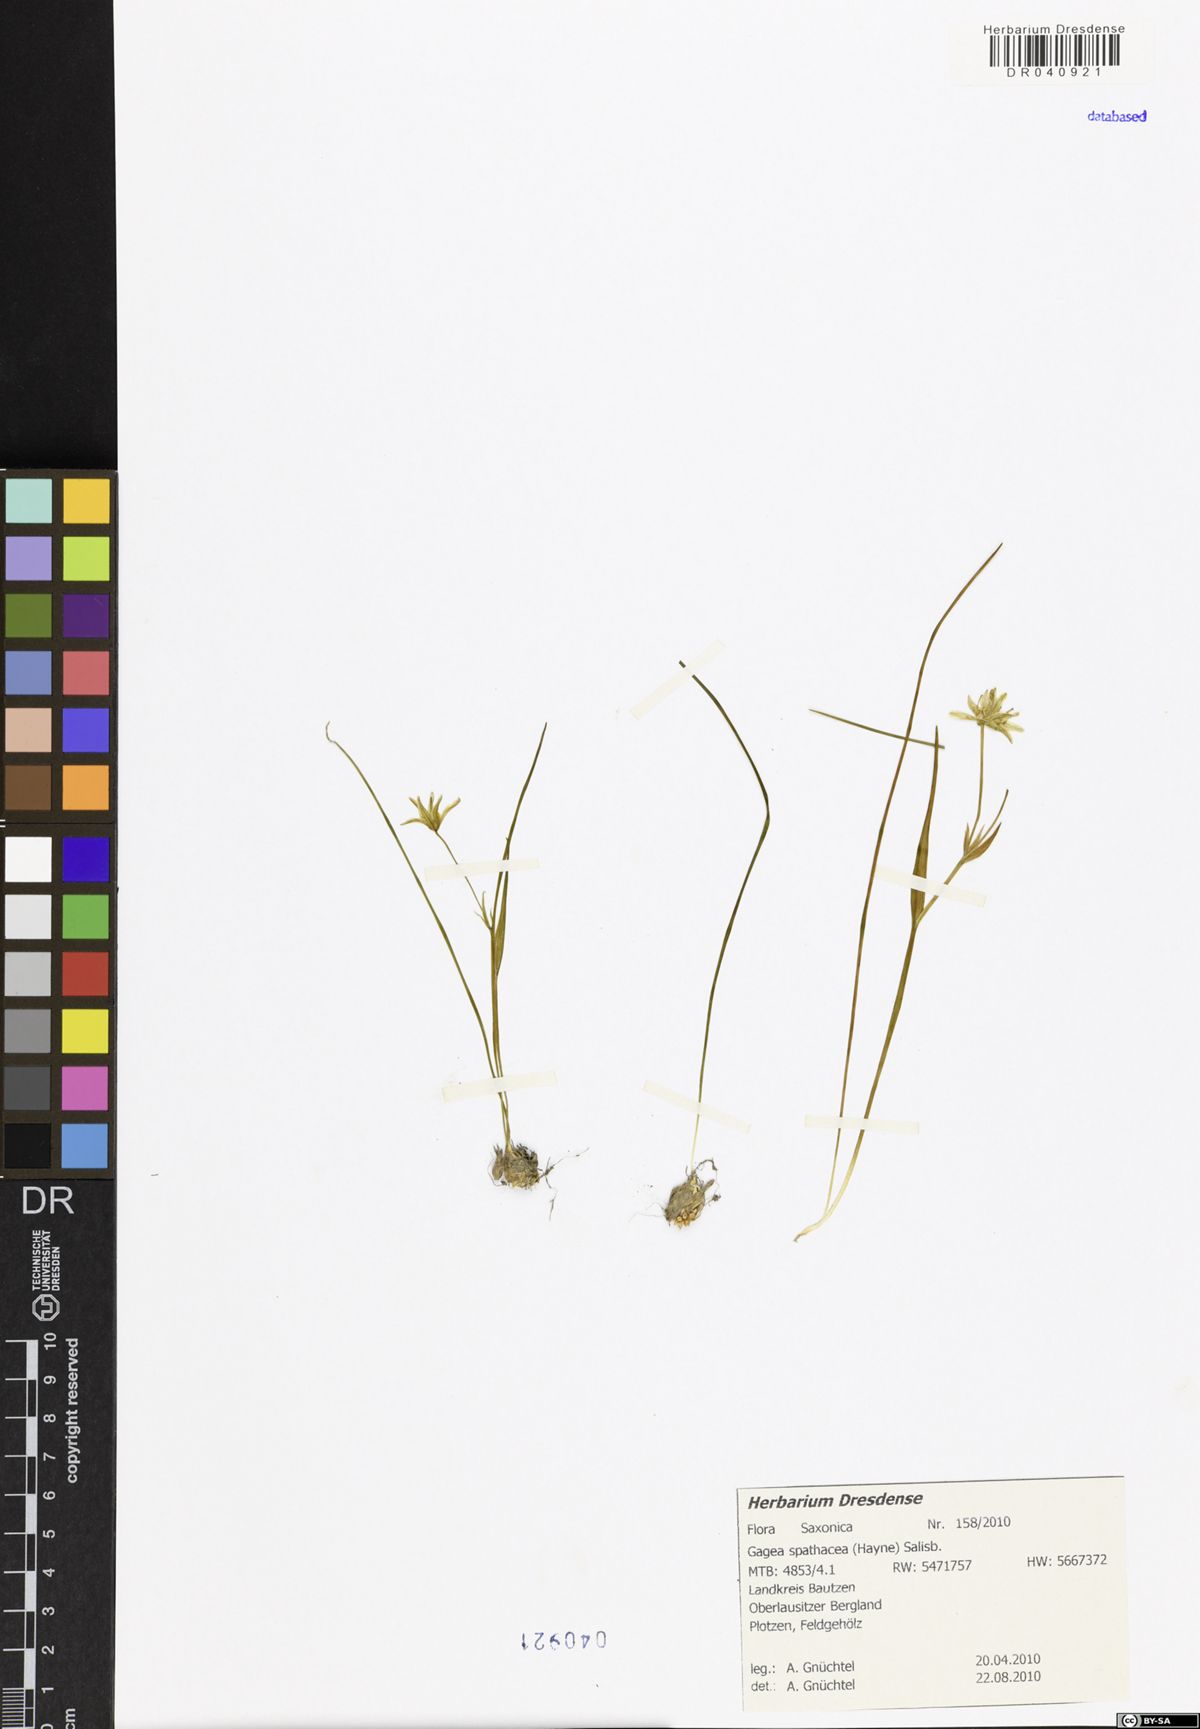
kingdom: Plantae
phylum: Tracheophyta
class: Liliopsida
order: Liliales
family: Liliaceae
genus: Gagea
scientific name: Gagea spathacea
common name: Belgian gagea
